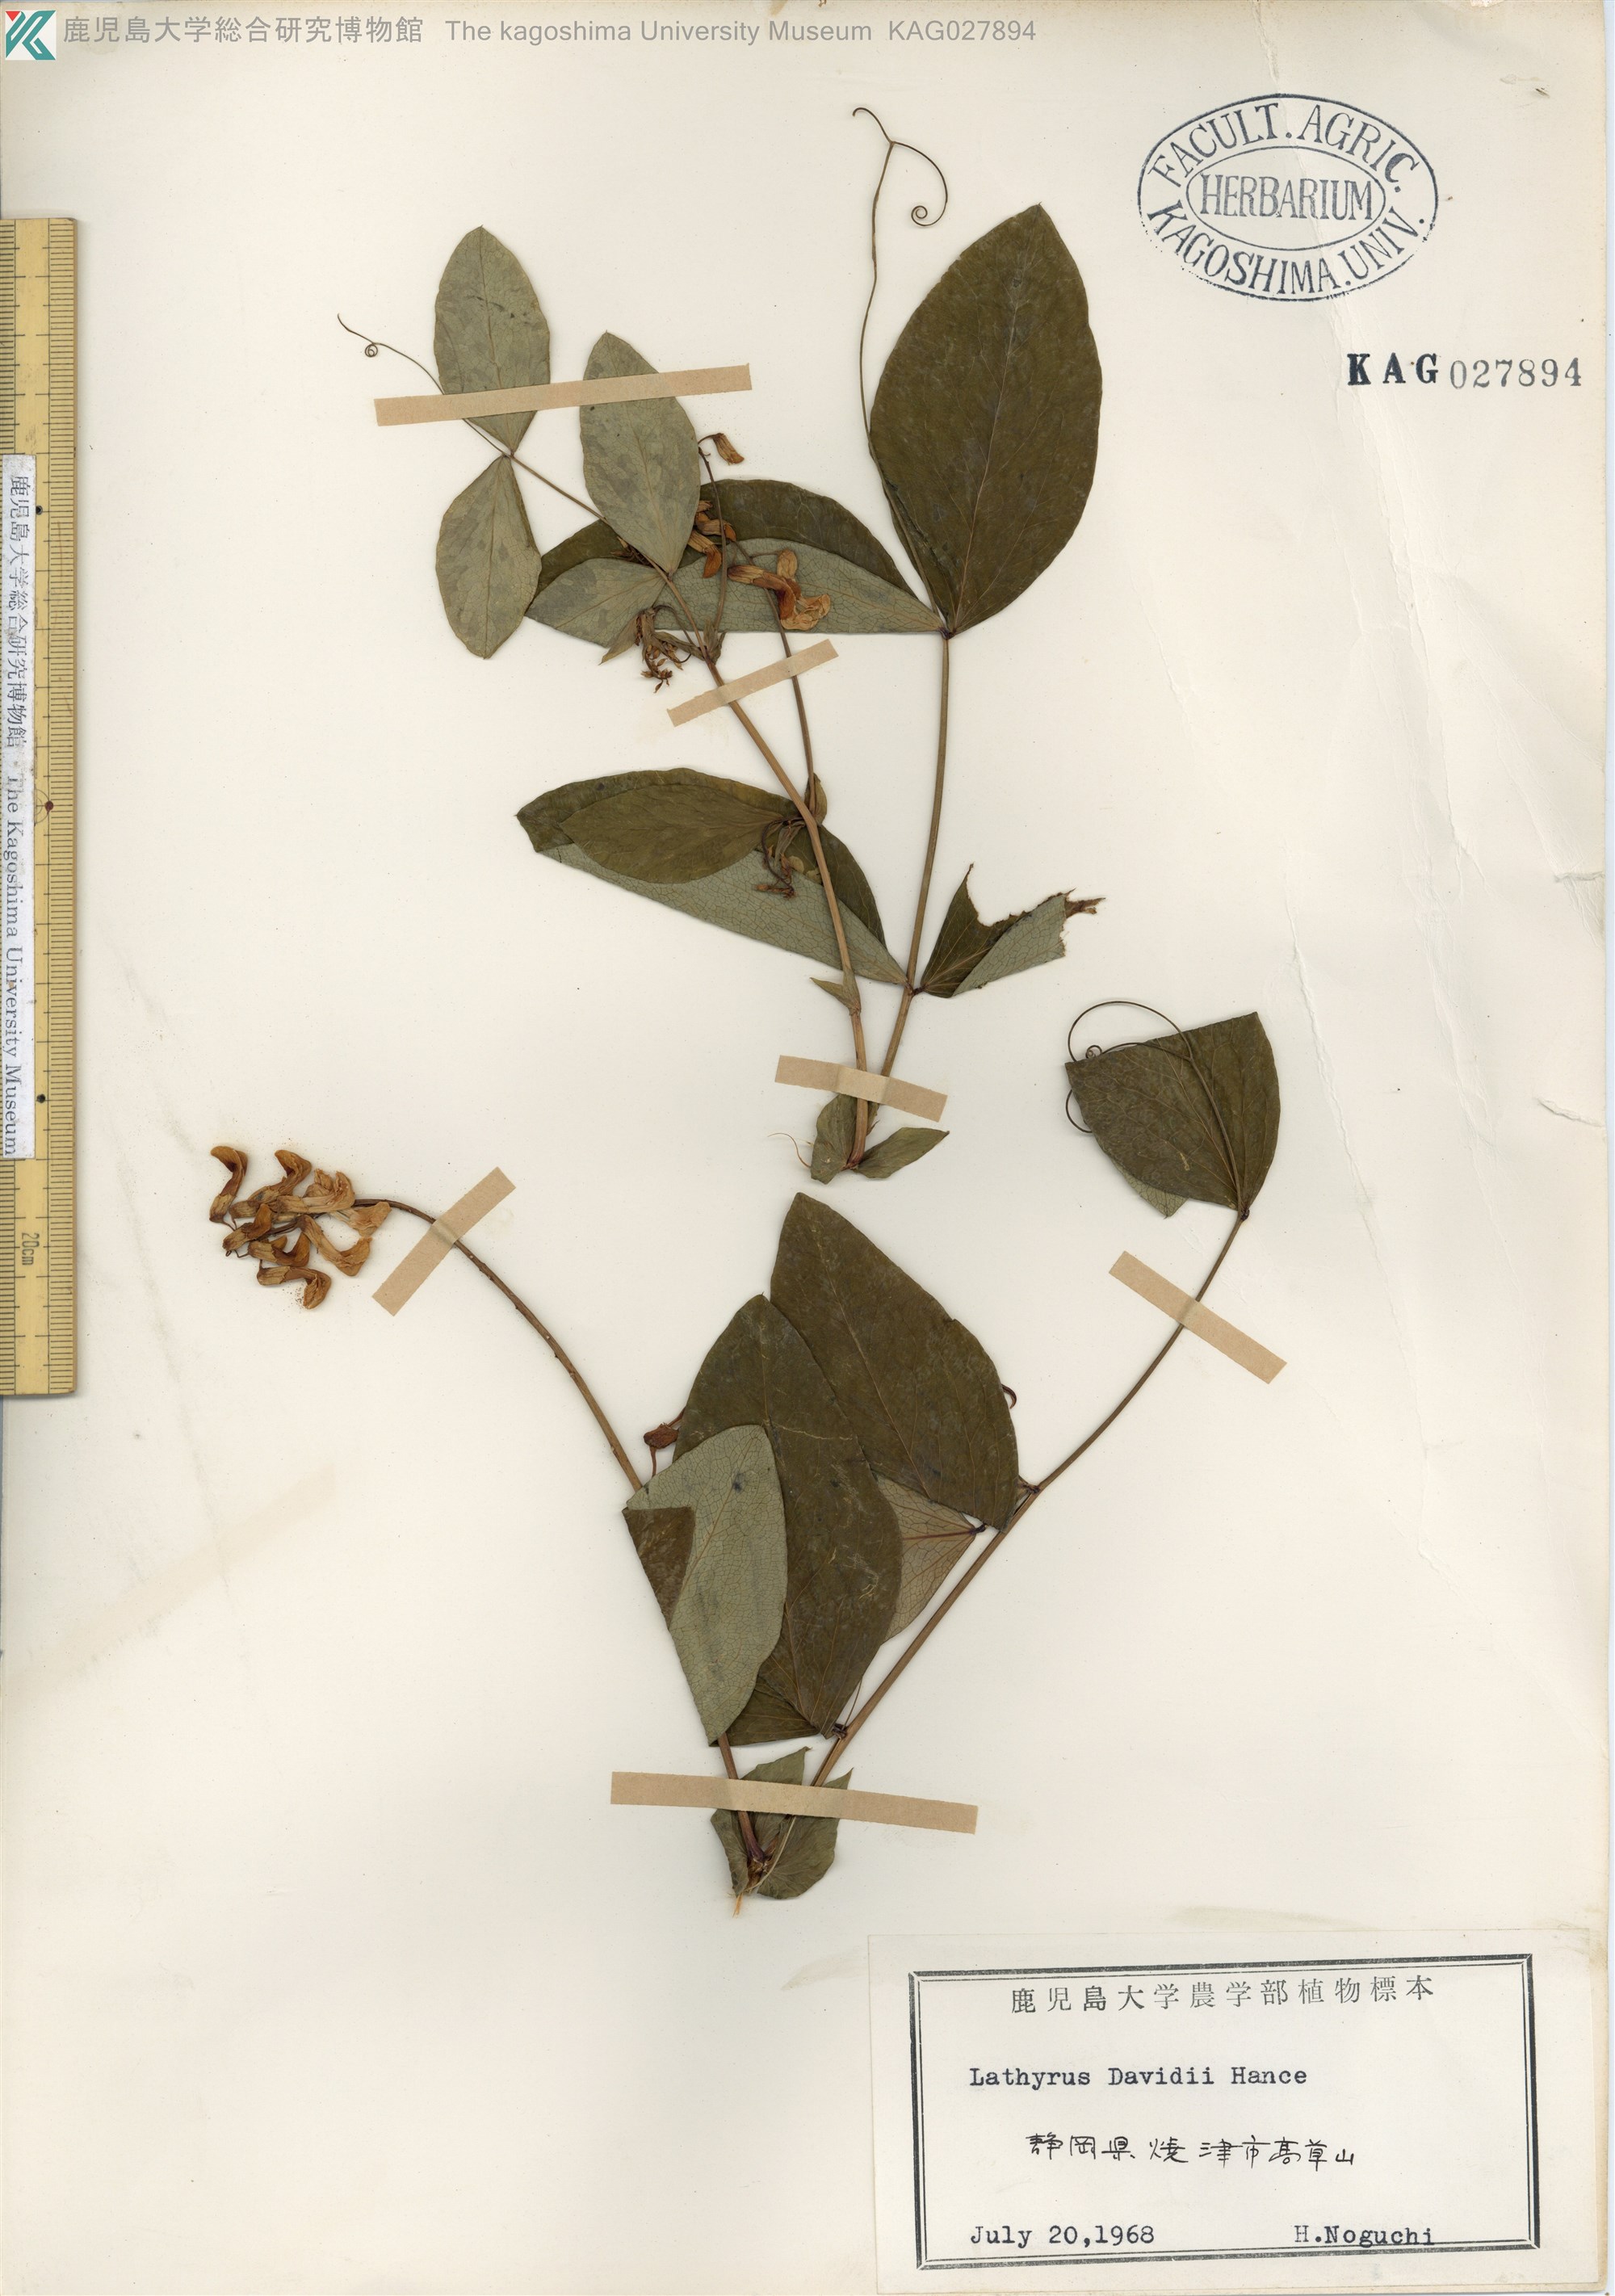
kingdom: Plantae
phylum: Tracheophyta
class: Magnoliopsida
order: Fabales
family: Fabaceae
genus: Lathyrus
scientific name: Lathyrus davidii
